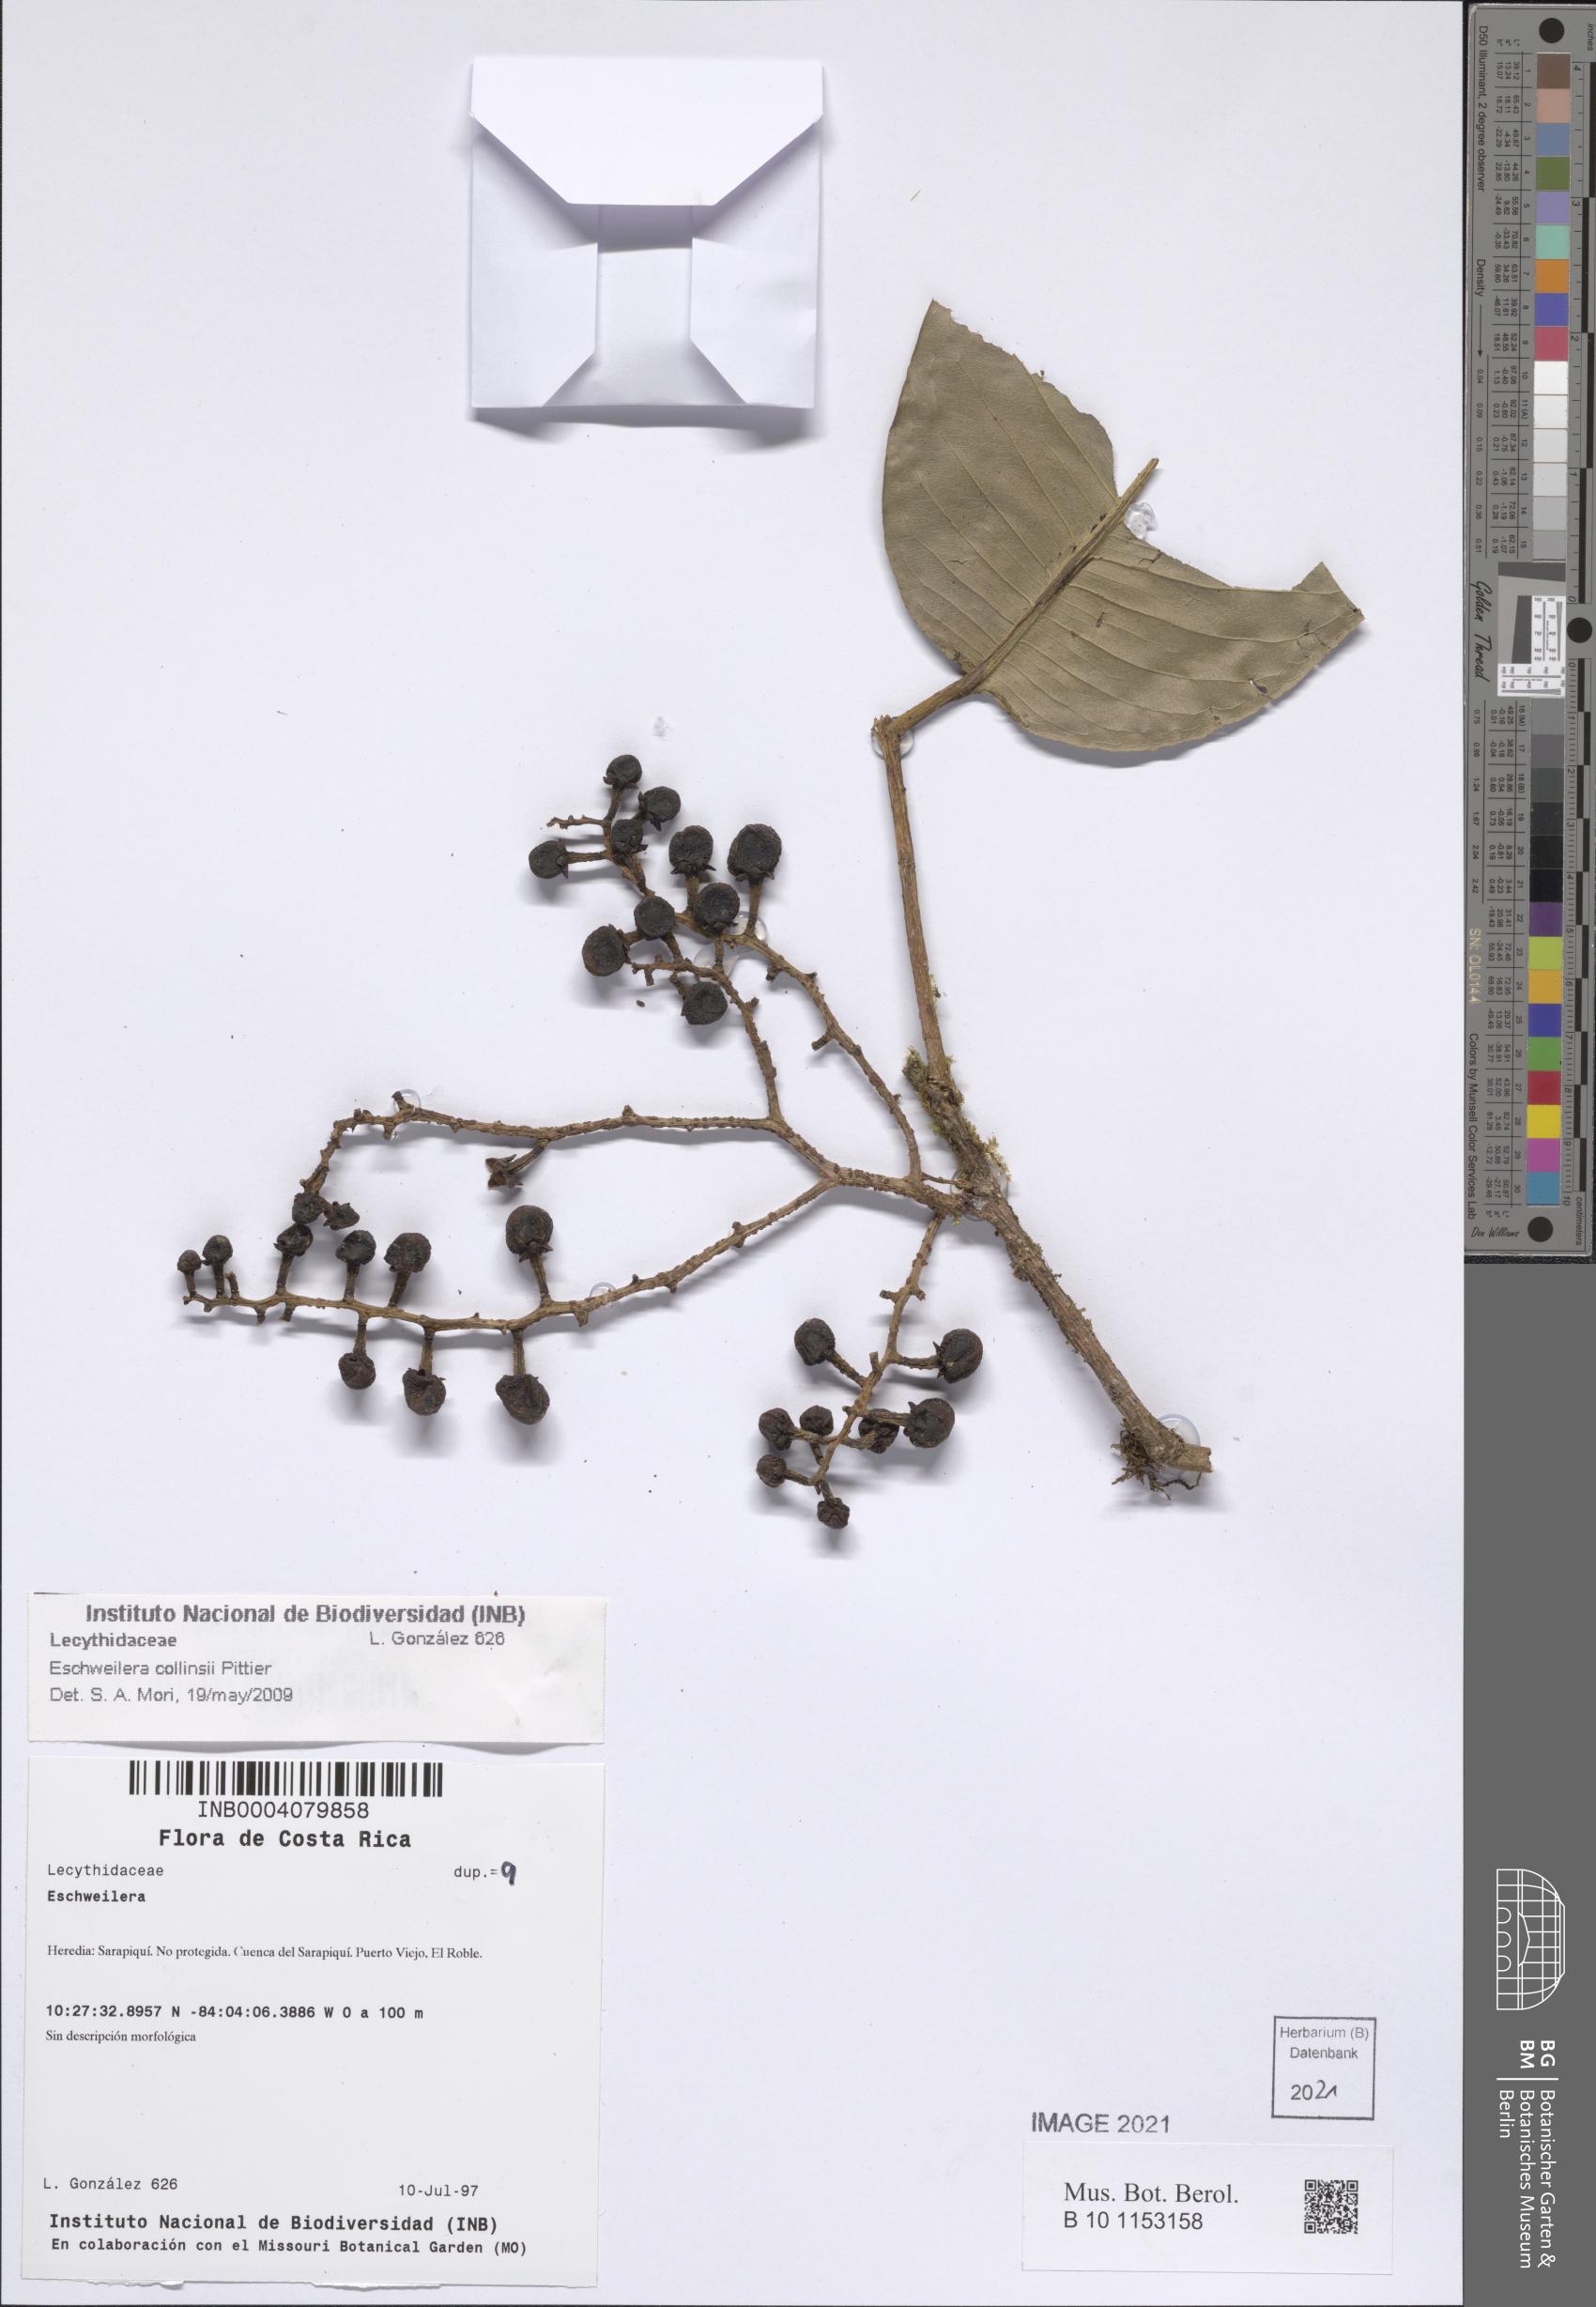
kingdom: Plantae
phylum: Tracheophyta
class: Magnoliopsida
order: Ericales
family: Lecythidaceae
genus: Eschweilera
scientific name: Eschweilera collinsii
